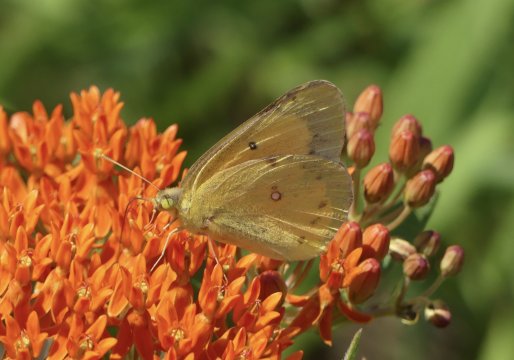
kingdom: Animalia
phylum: Arthropoda
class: Insecta
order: Lepidoptera
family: Pieridae
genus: Colias
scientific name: Colias eurytheme
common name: Orange Sulphur
